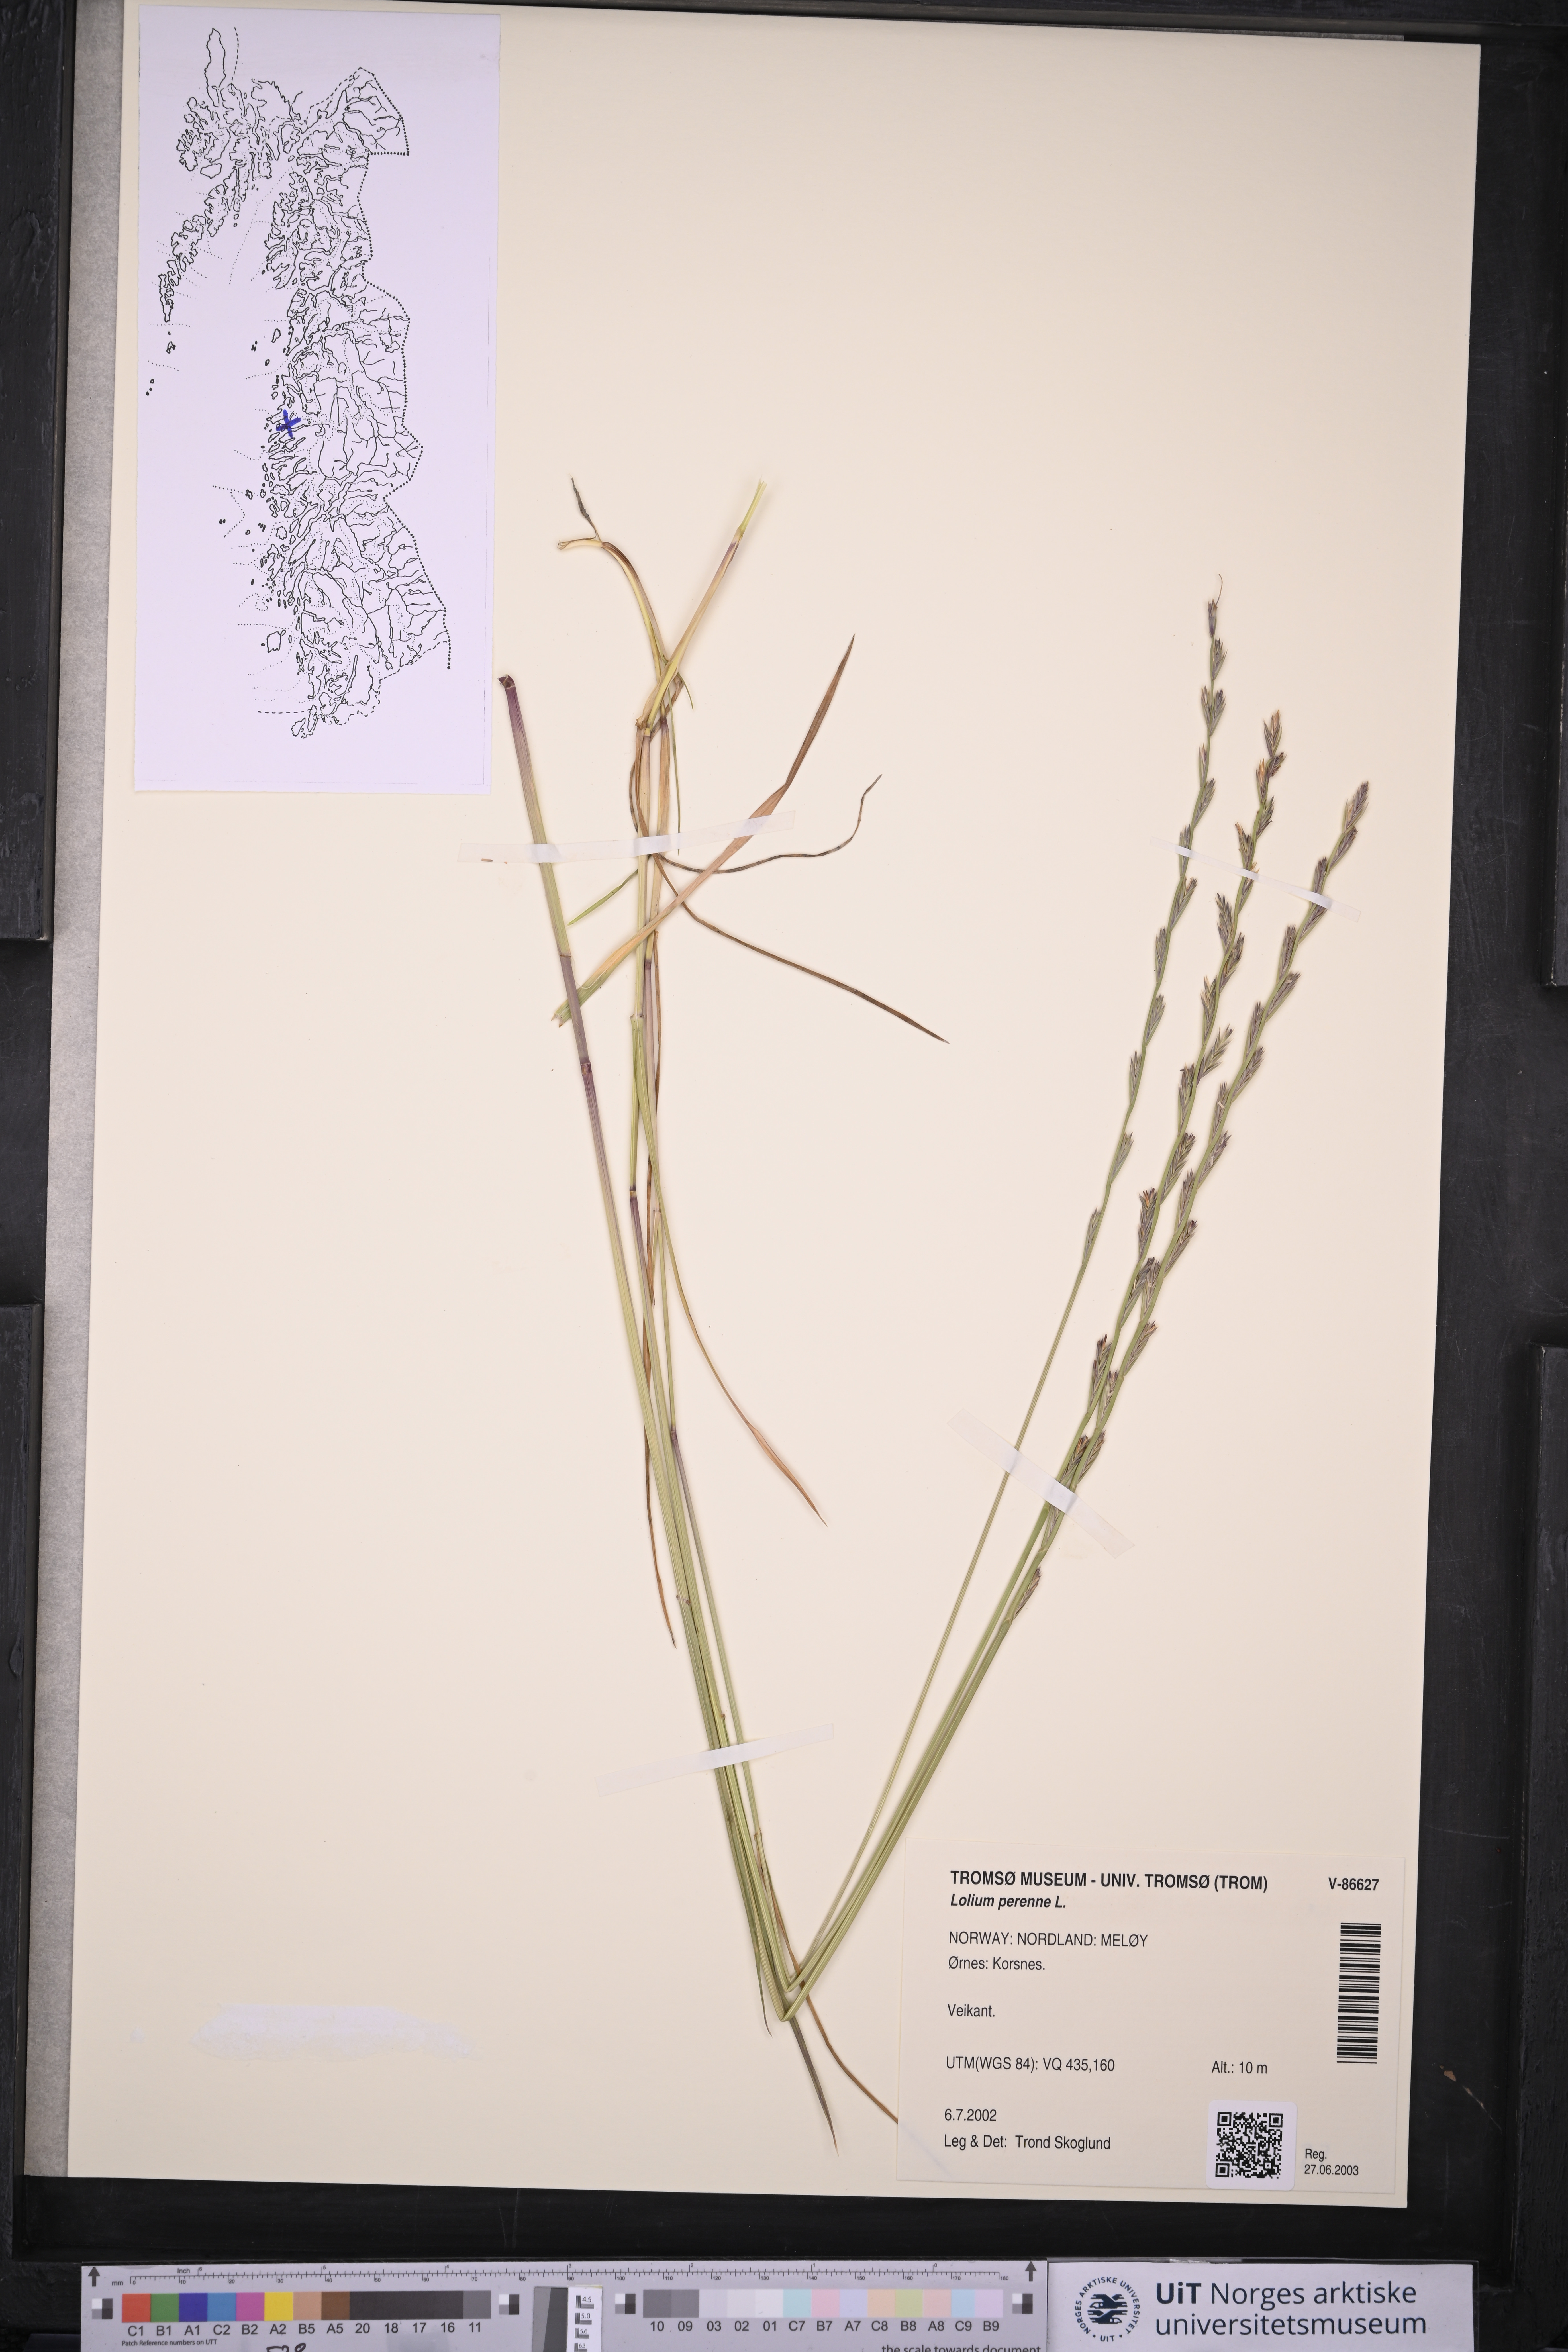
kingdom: Plantae
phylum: Tracheophyta
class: Liliopsida
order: Poales
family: Poaceae
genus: Lolium
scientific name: Lolium perenne
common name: Perennial ryegrass
